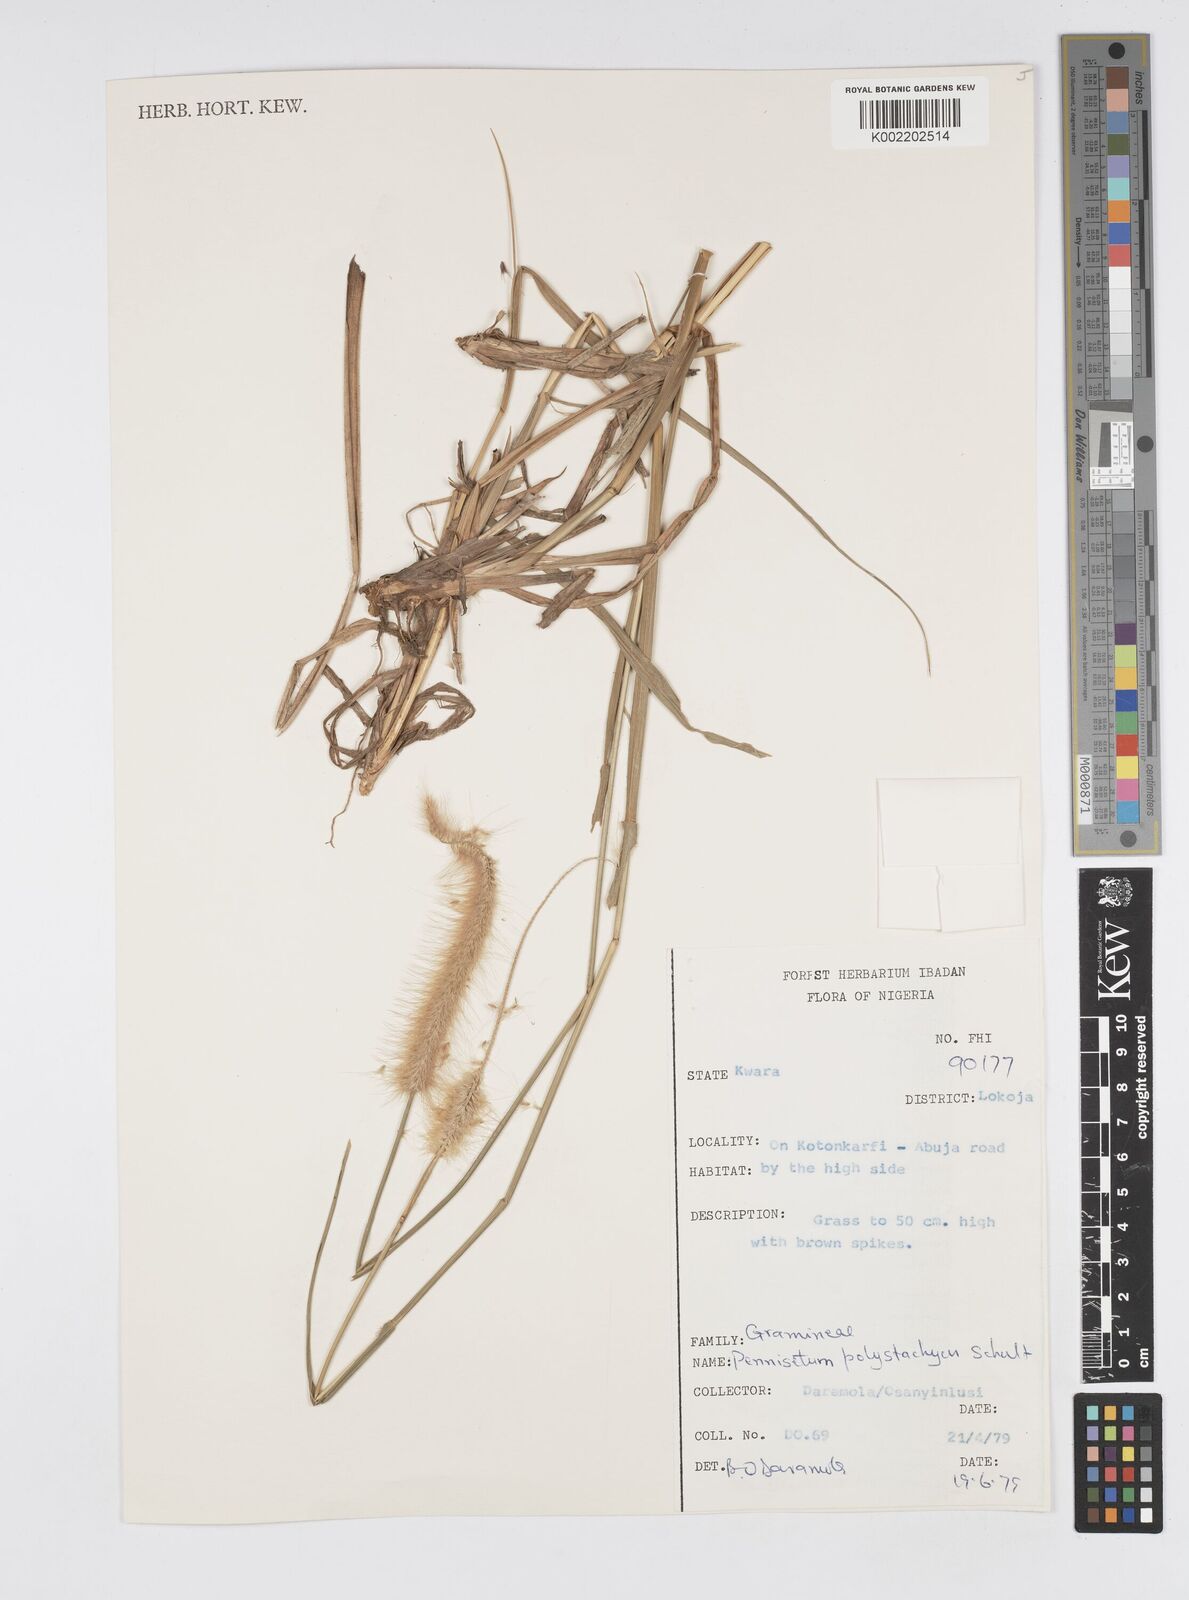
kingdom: Plantae
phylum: Tracheophyta
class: Liliopsida
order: Poales
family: Poaceae
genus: Cenchrus
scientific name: Cenchrus Pennisetum spec
